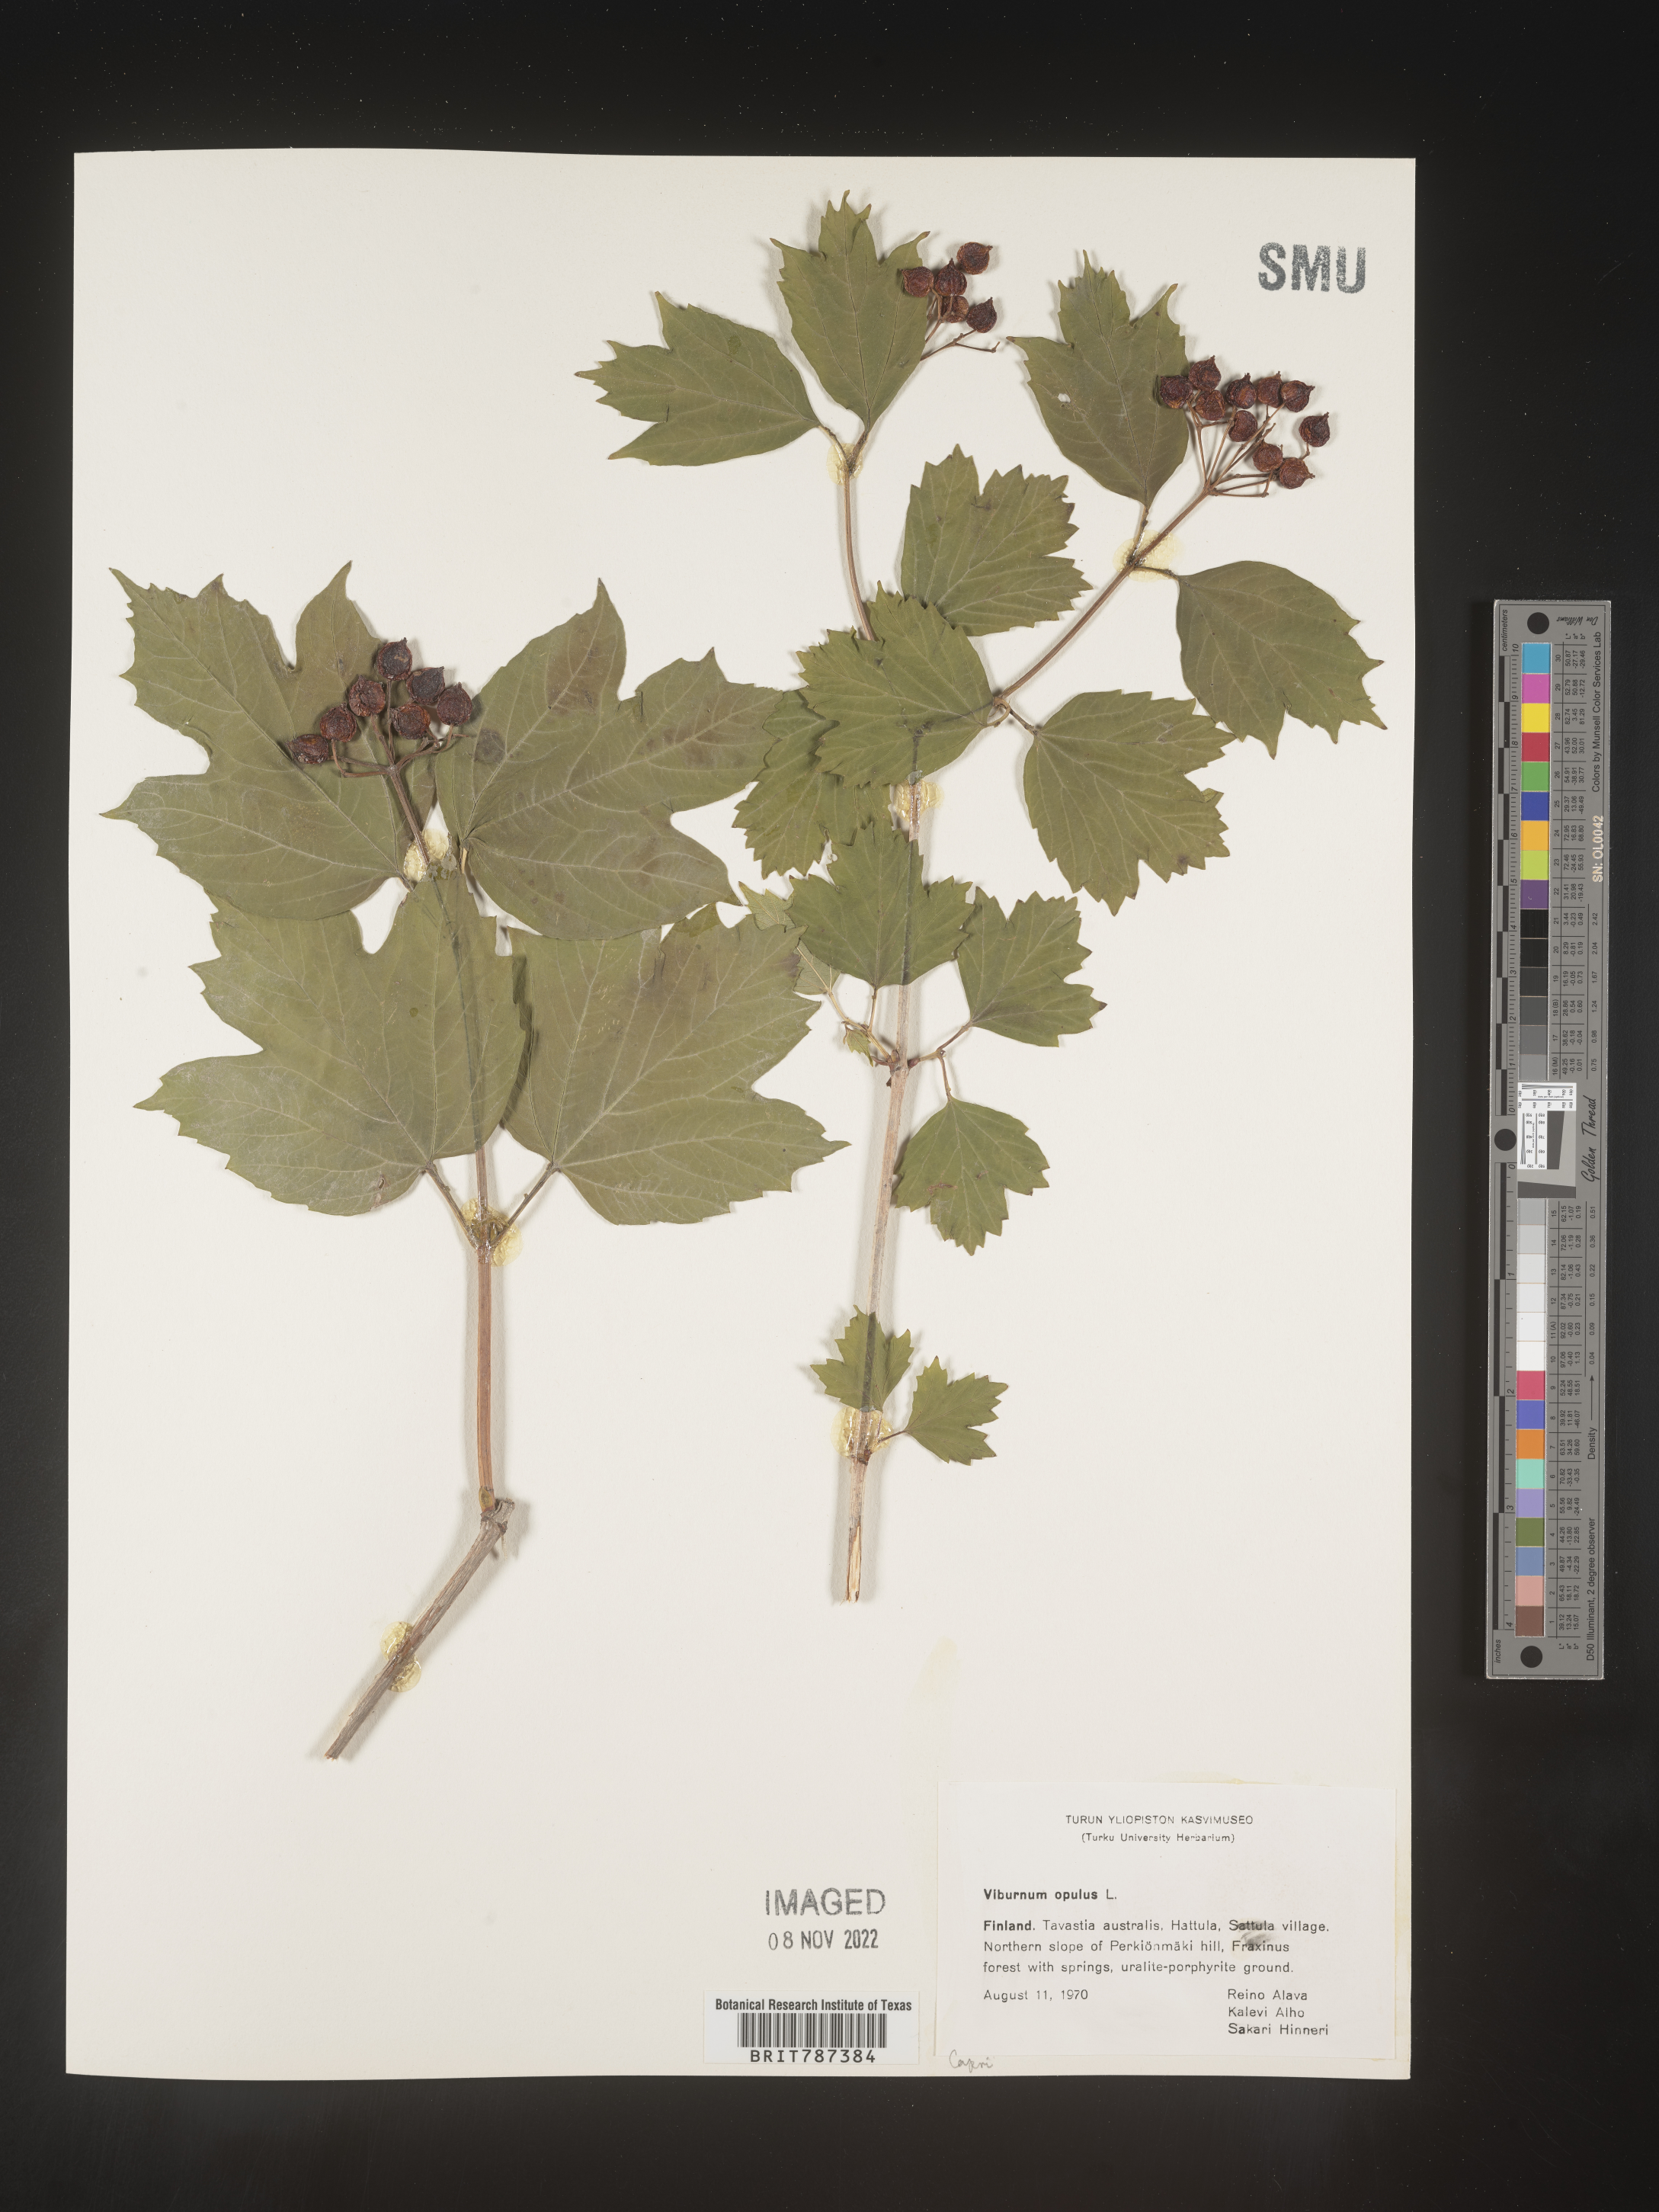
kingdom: Plantae
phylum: Tracheophyta
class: Magnoliopsida
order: Dipsacales
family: Viburnaceae
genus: Viburnum
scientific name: Viburnum opulus
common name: Guelder-rose
